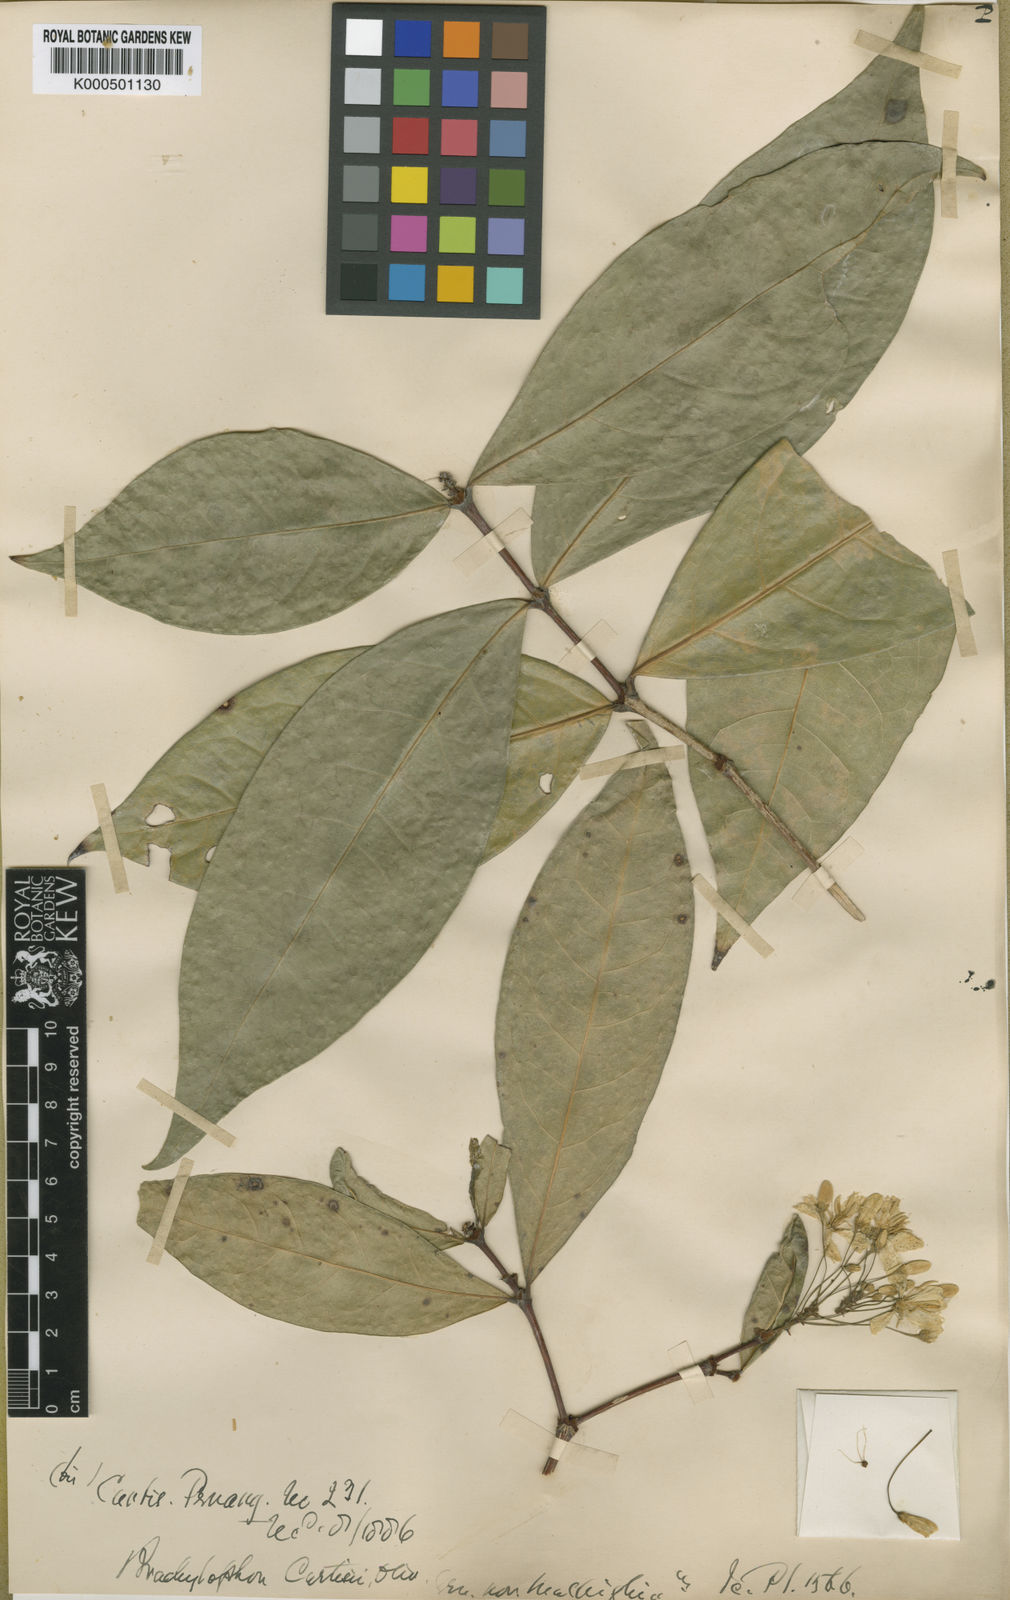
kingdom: Plantae
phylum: Tracheophyta
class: Magnoliopsida
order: Malpighiales
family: Malpighiaceae
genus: Brachylophon
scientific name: Brachylophon curtisii
